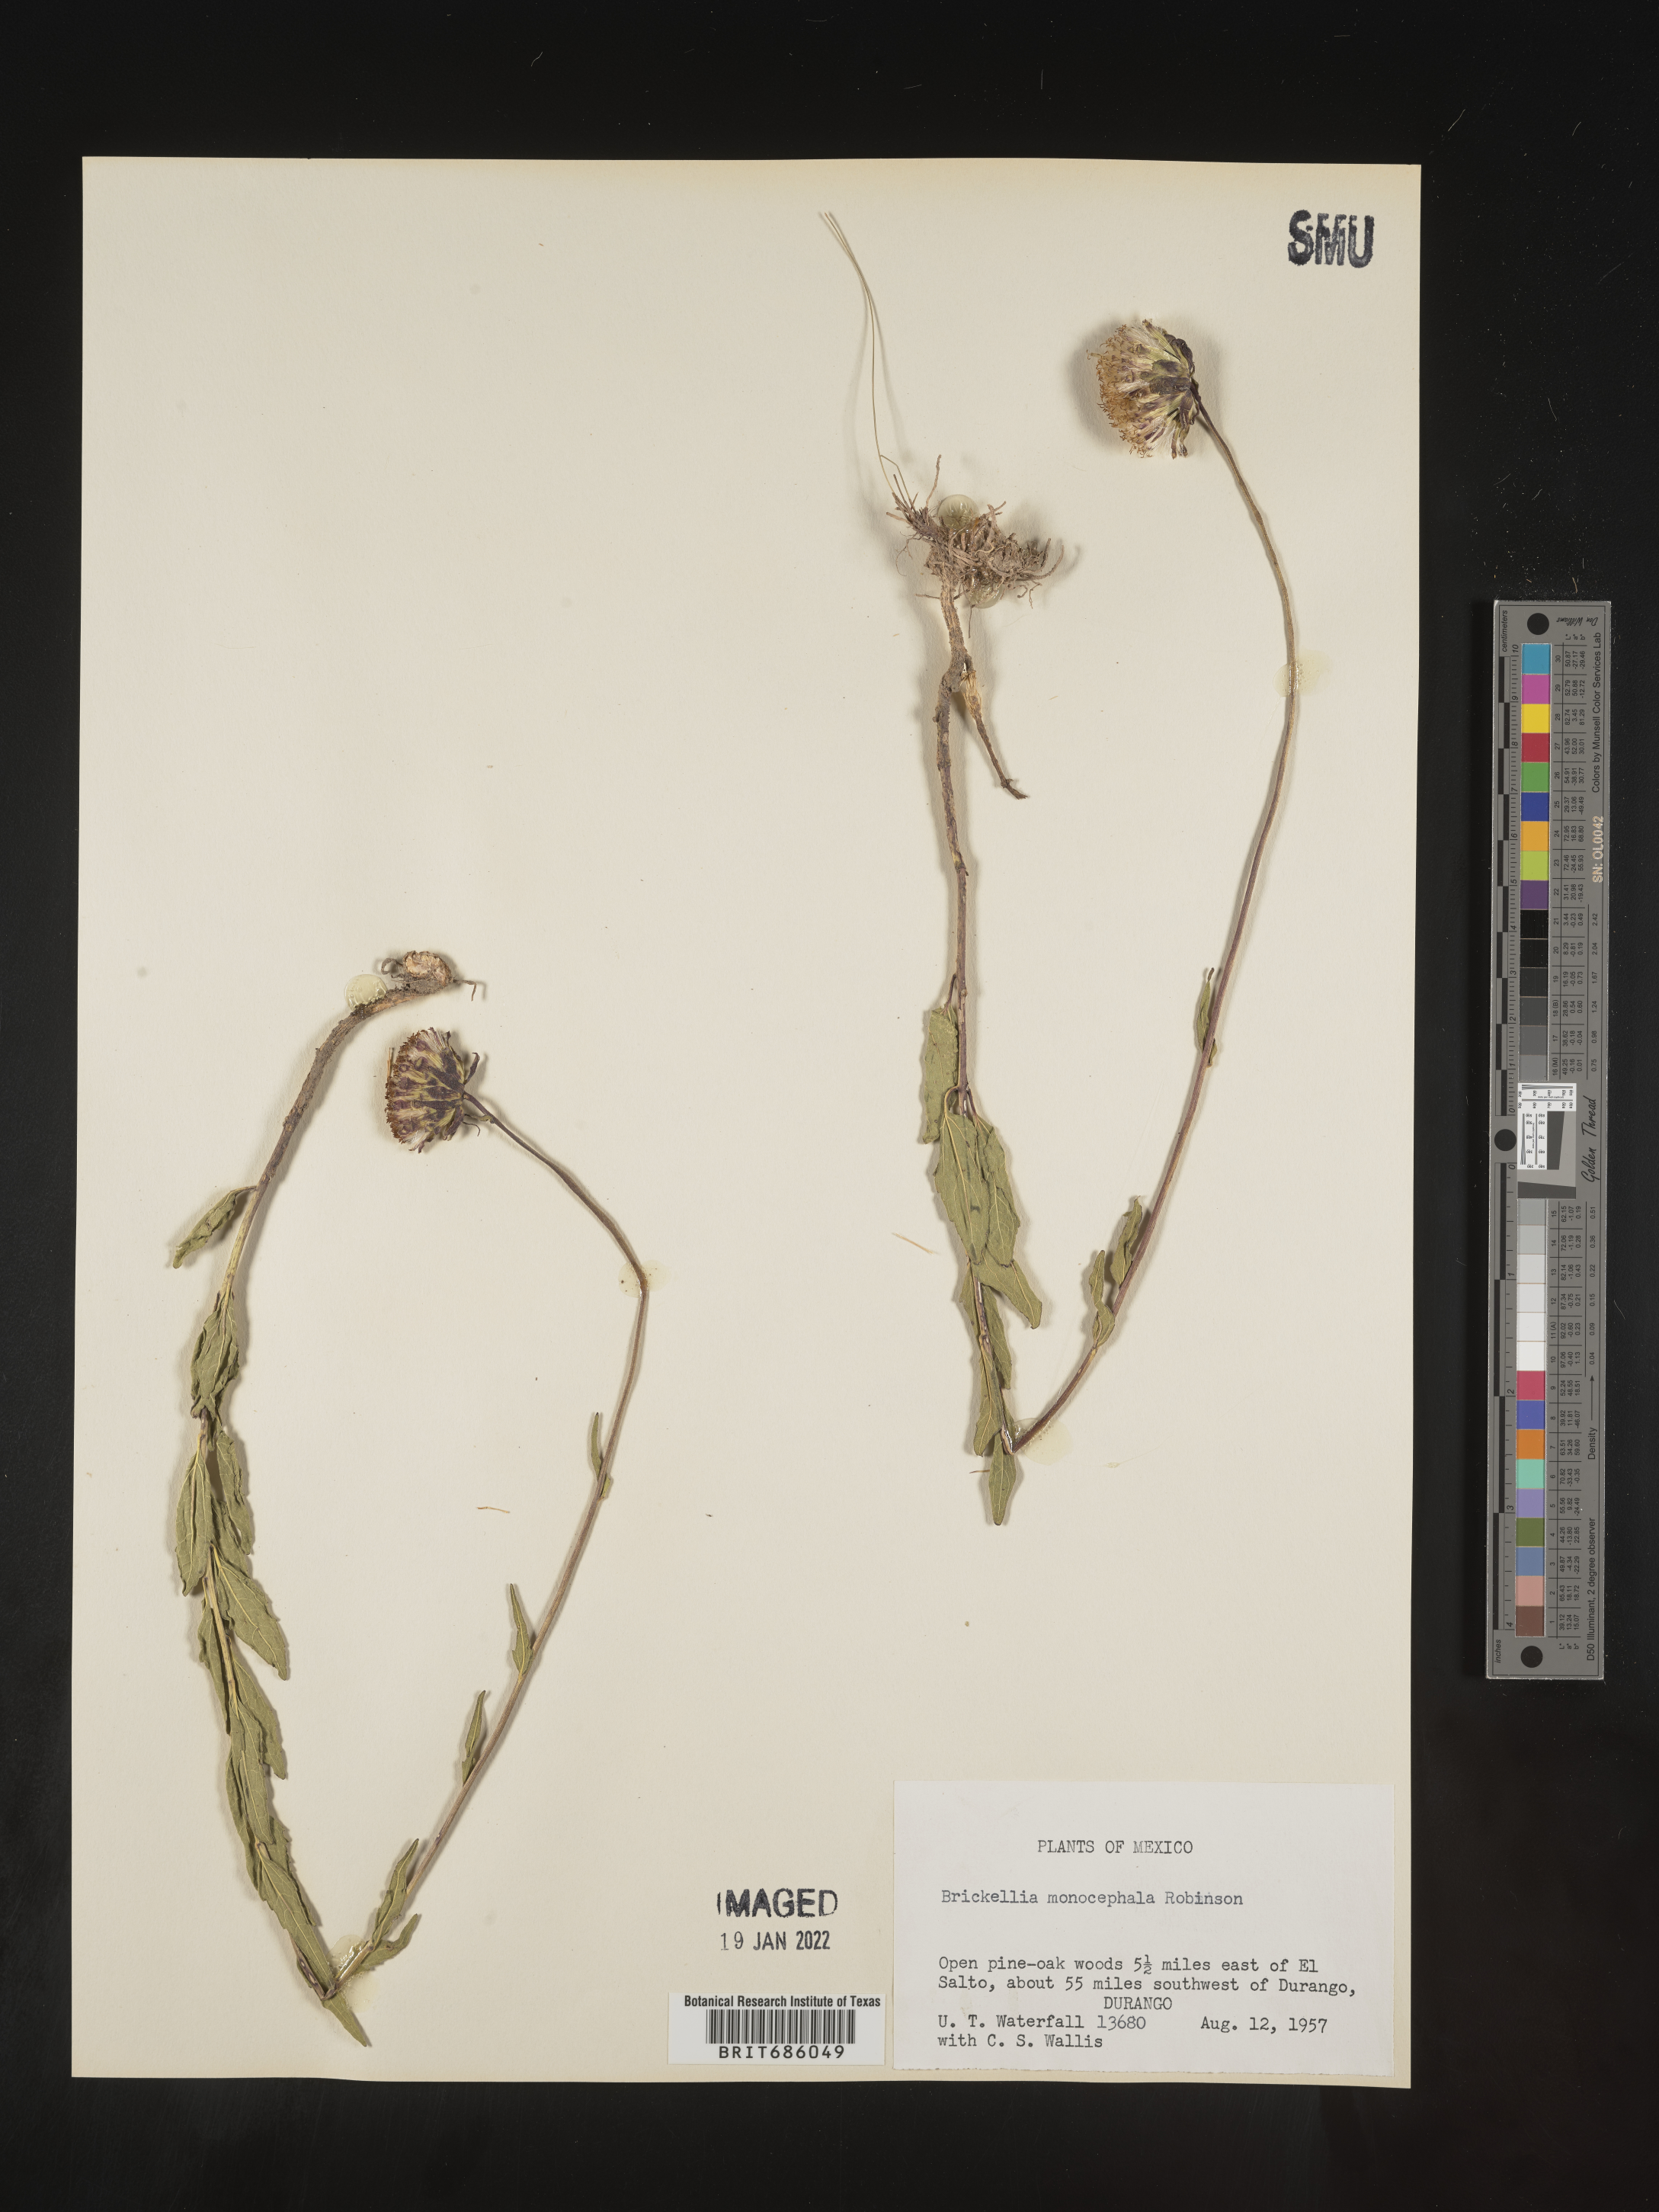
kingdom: Plantae
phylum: Tracheophyta
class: Magnoliopsida
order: Asterales
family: Asteraceae
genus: Brickellia
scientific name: Brickellia
